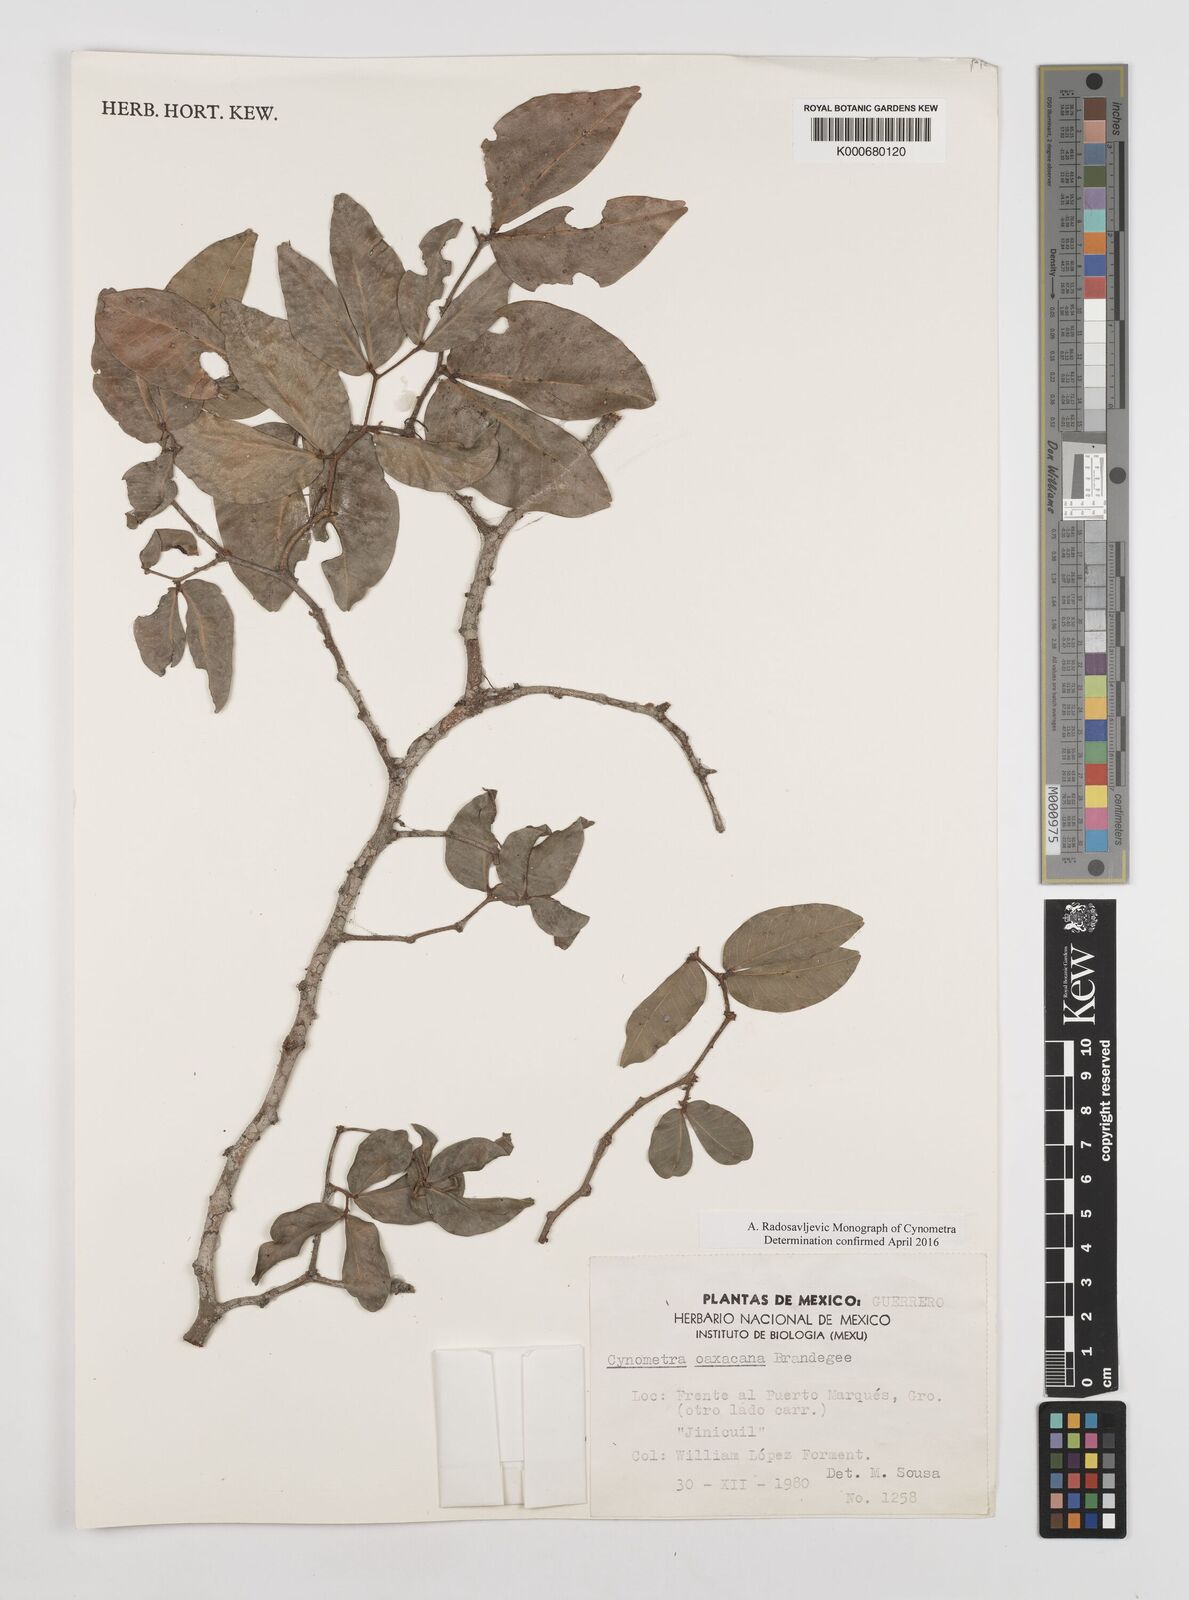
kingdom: Plantae
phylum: Tracheophyta
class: Magnoliopsida
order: Fabales
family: Fabaceae
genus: Cynometra
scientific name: Cynometra oaxacana
